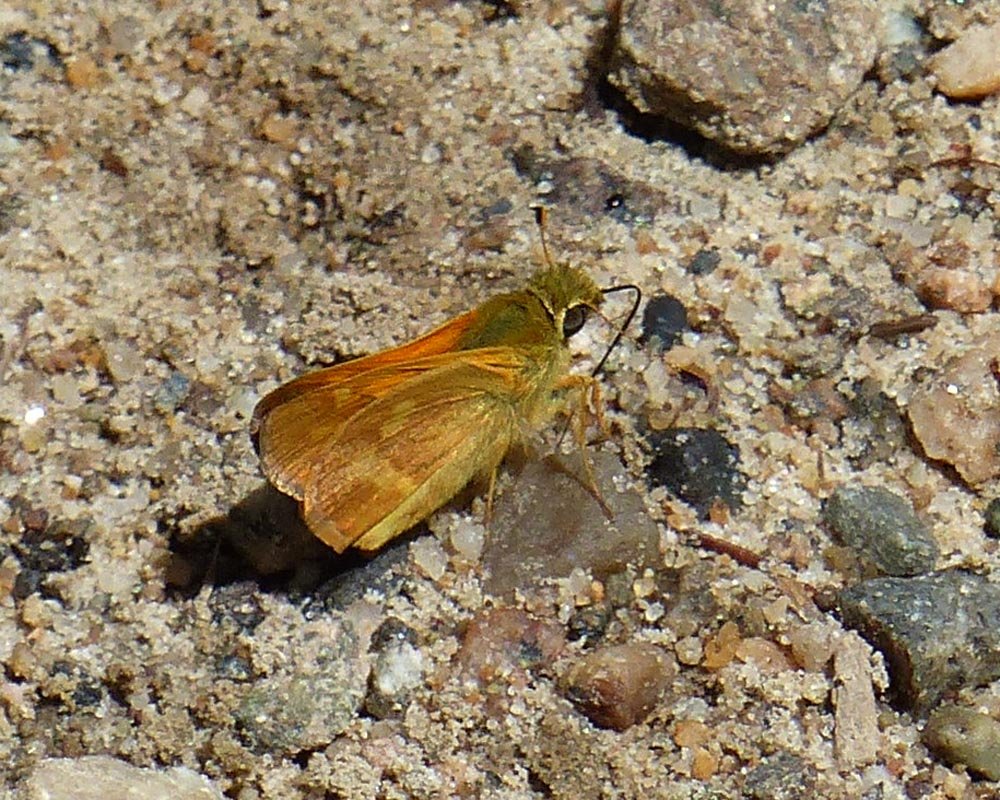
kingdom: Animalia
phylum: Arthropoda
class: Insecta
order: Lepidoptera
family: Hesperiidae
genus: Ochlodes
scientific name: Ochlodes sylvanoides
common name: Woodland Skipper
